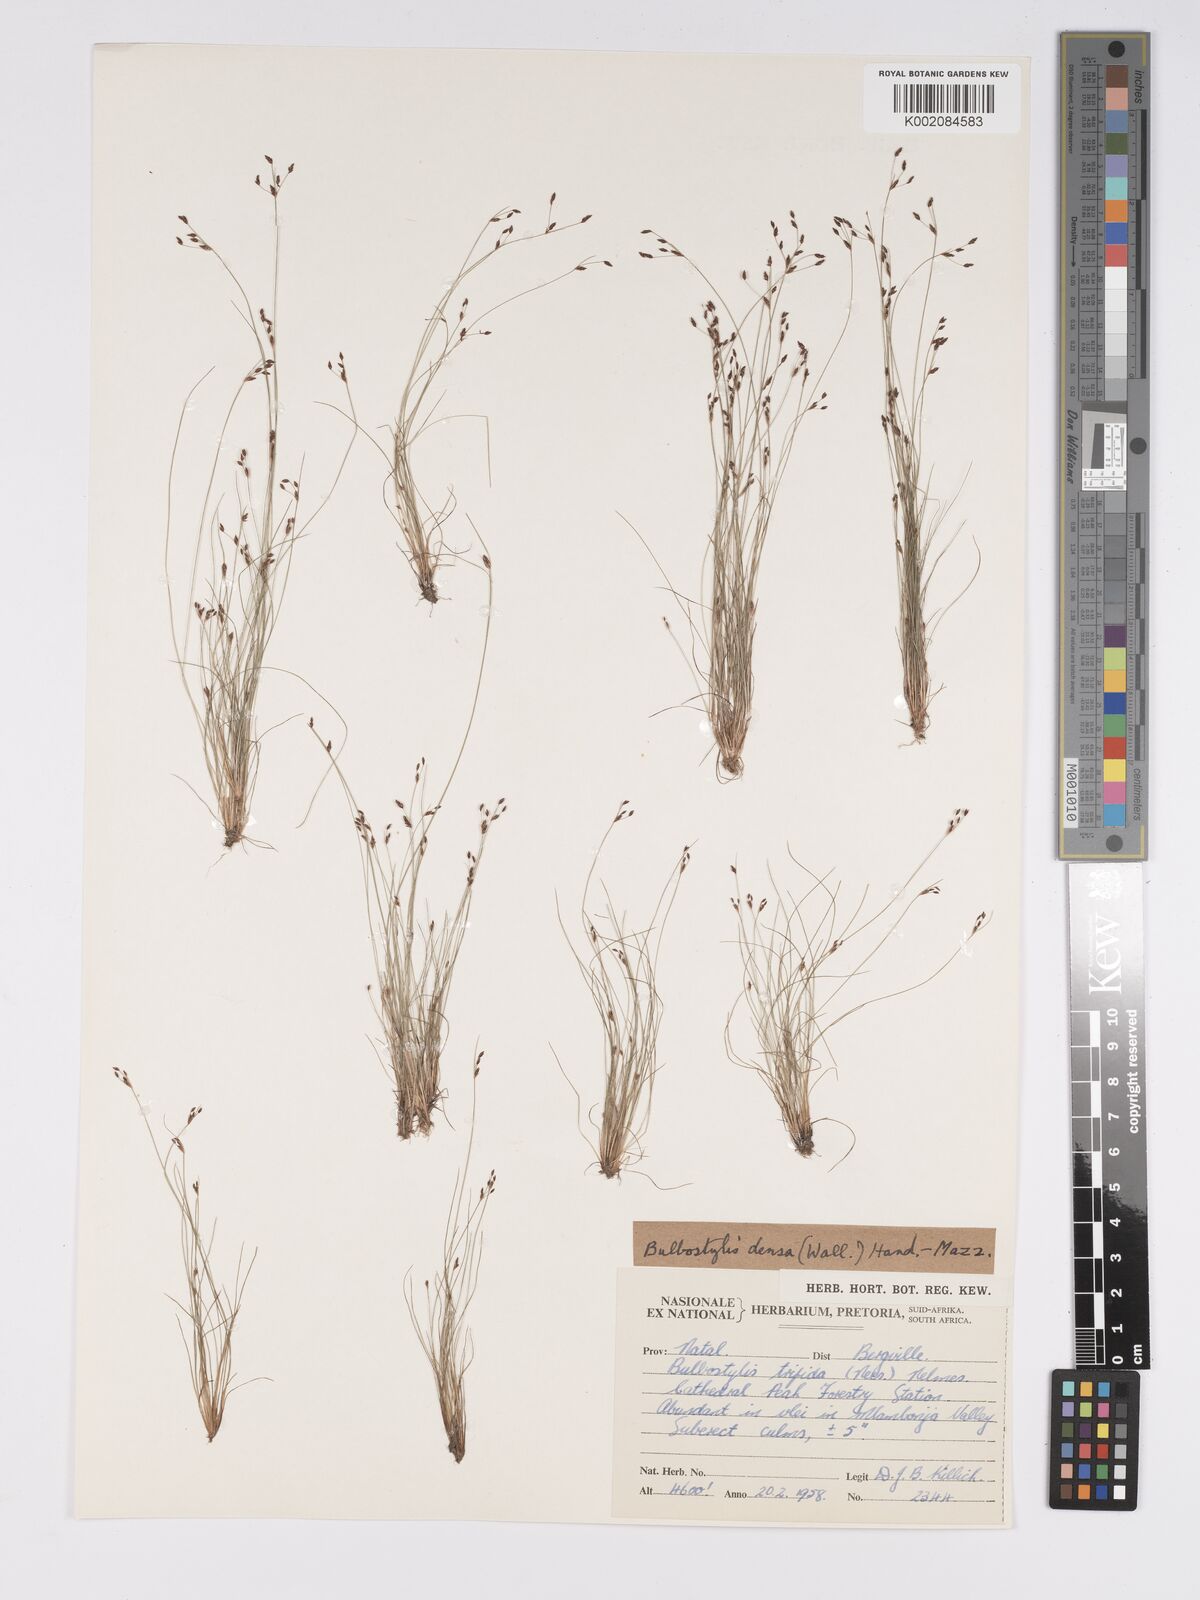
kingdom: Plantae
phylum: Tracheophyta
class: Liliopsida
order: Poales
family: Cyperaceae
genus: Bulbostylis
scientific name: Bulbostylis capillaris
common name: Densetuft hairsedge
